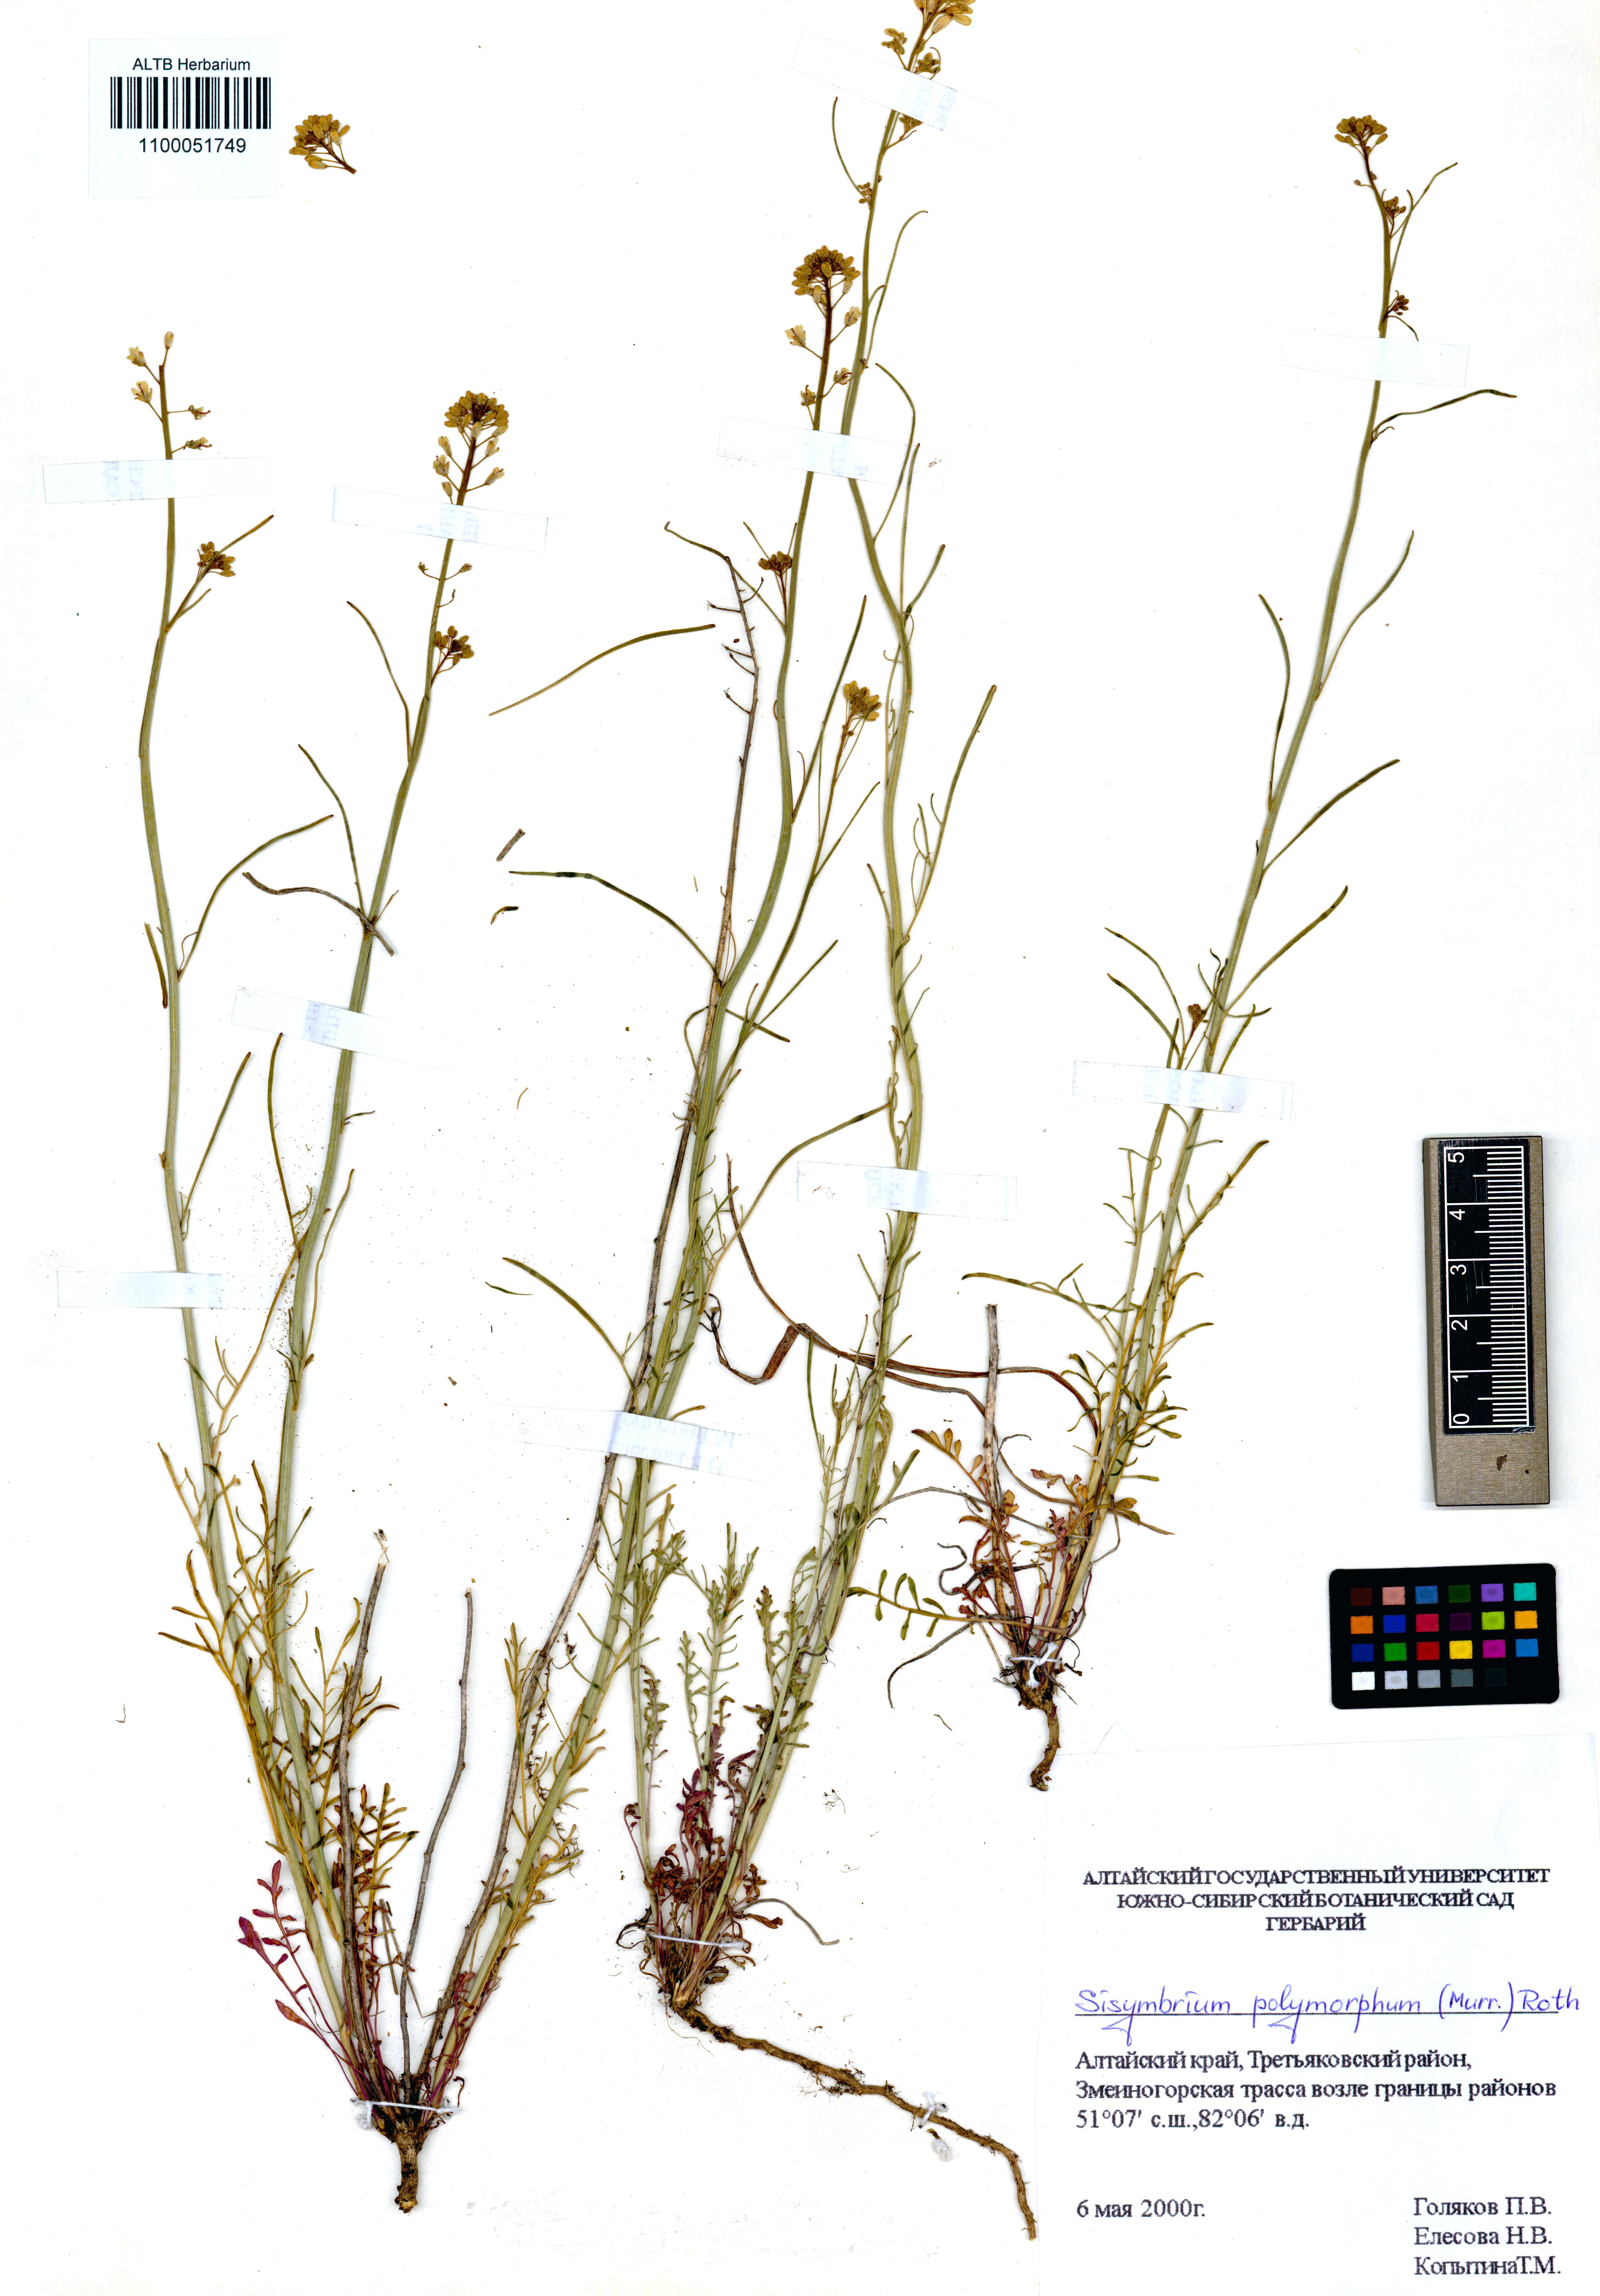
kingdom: Plantae
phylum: Tracheophyta
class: Magnoliopsida
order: Brassicales
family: Brassicaceae
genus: Sisymbrium
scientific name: Sisymbrium polymorphum
